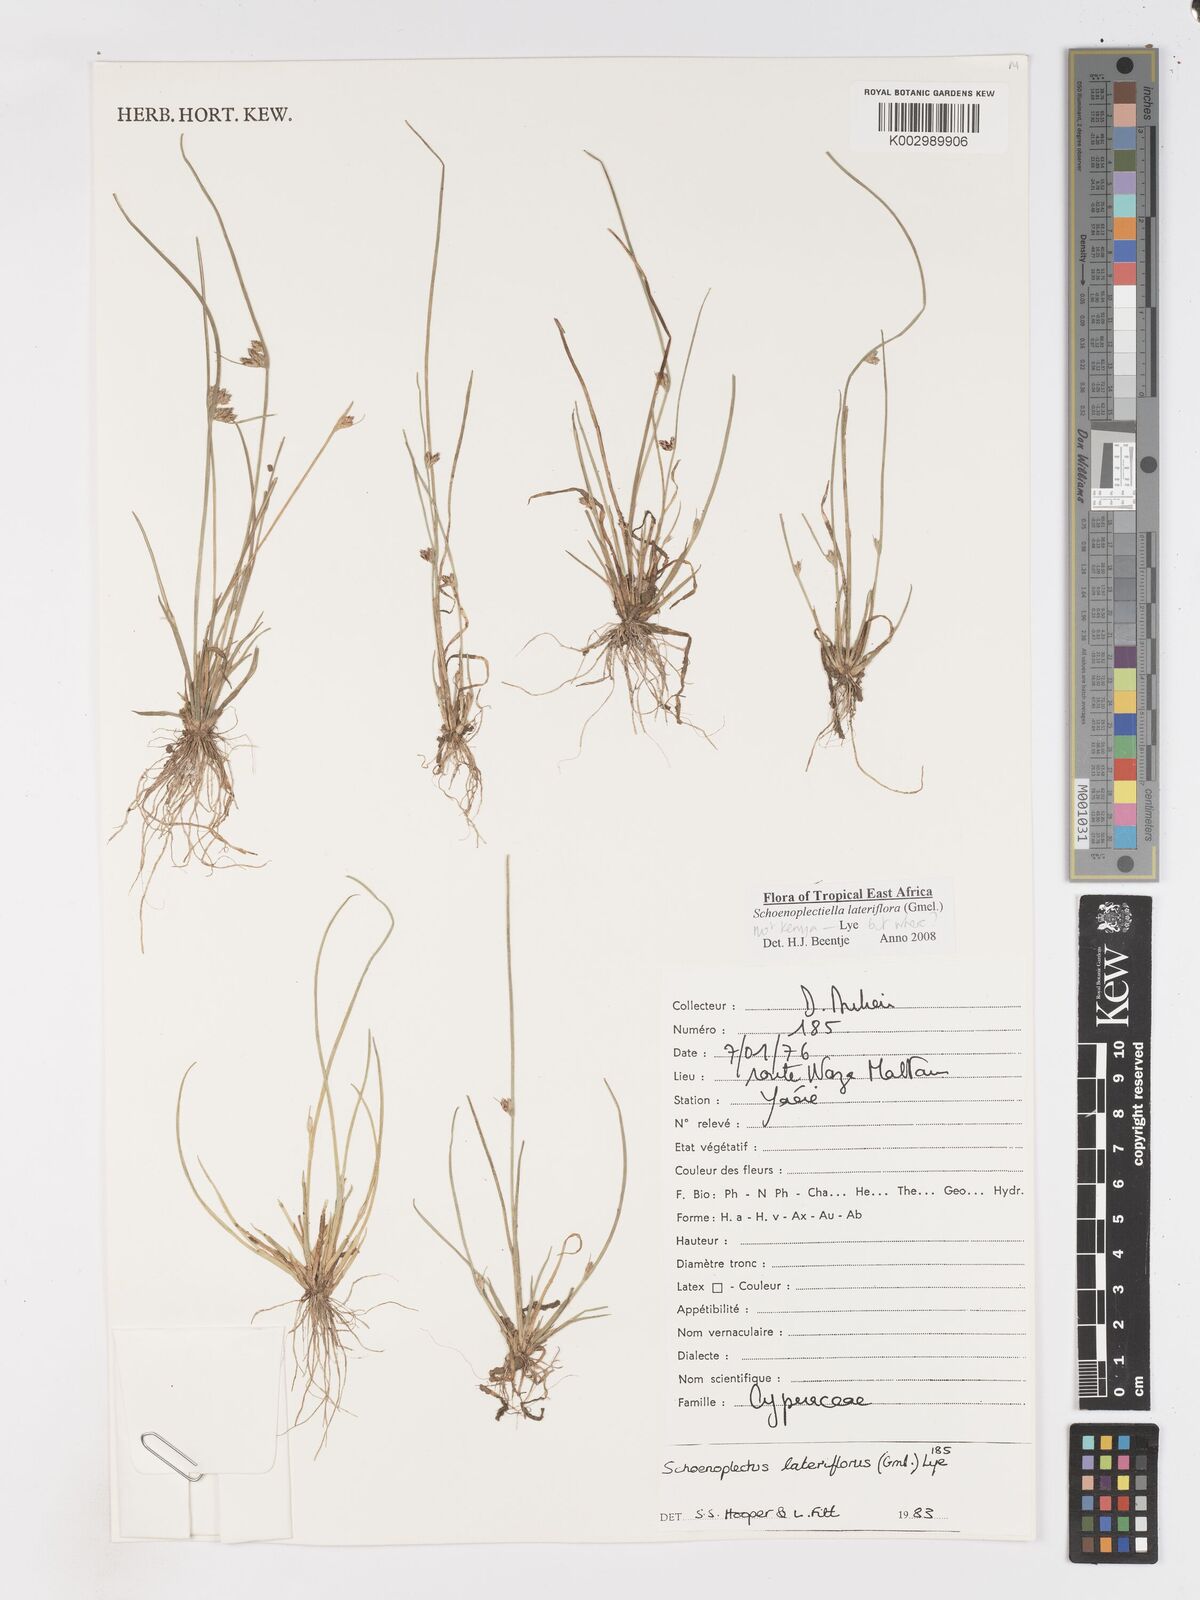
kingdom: Plantae
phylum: Tracheophyta
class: Liliopsida
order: Poales
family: Cyperaceae
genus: Schoenoplectiella
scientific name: Schoenoplectiella lateriflora
